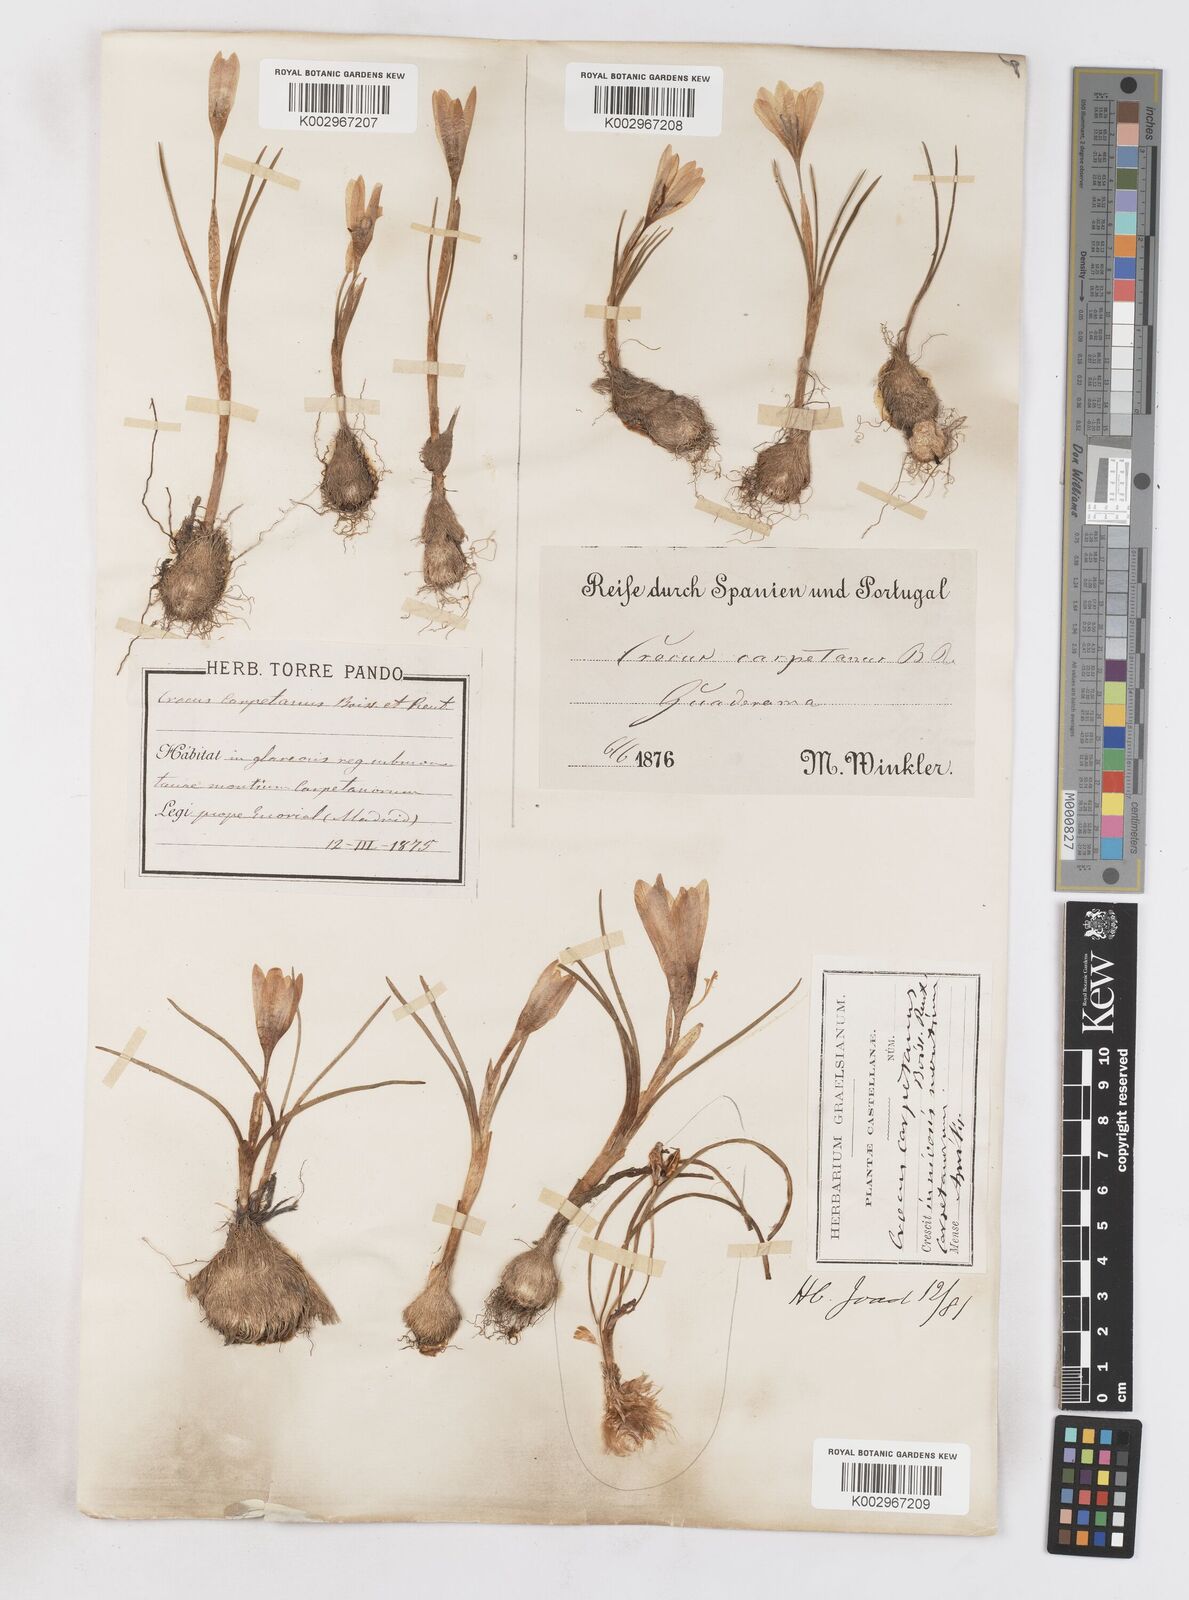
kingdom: Plantae
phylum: Tracheophyta
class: Liliopsida
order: Asparagales
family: Iridaceae
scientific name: Iridaceae
